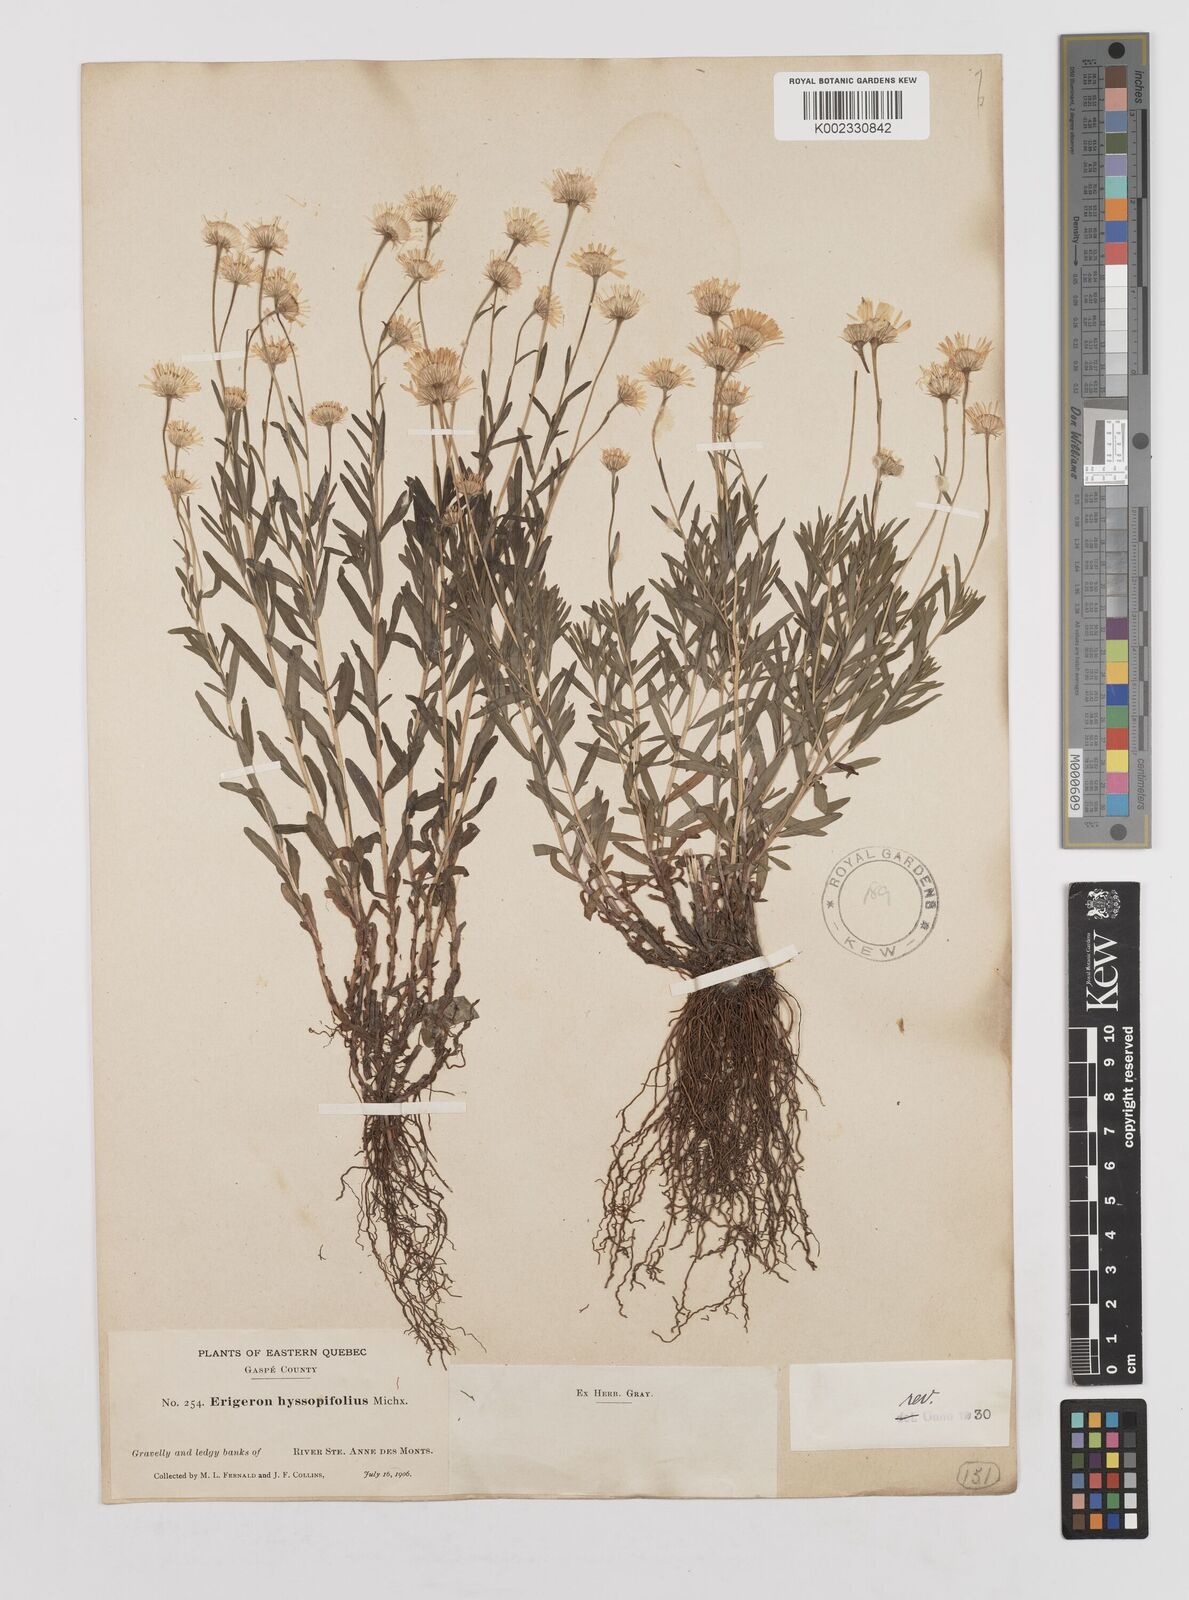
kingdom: Plantae
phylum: Tracheophyta
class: Magnoliopsida
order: Asterales
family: Asteraceae
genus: Erigeron
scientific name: Erigeron hyssopifolius
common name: Daisy fleabane
